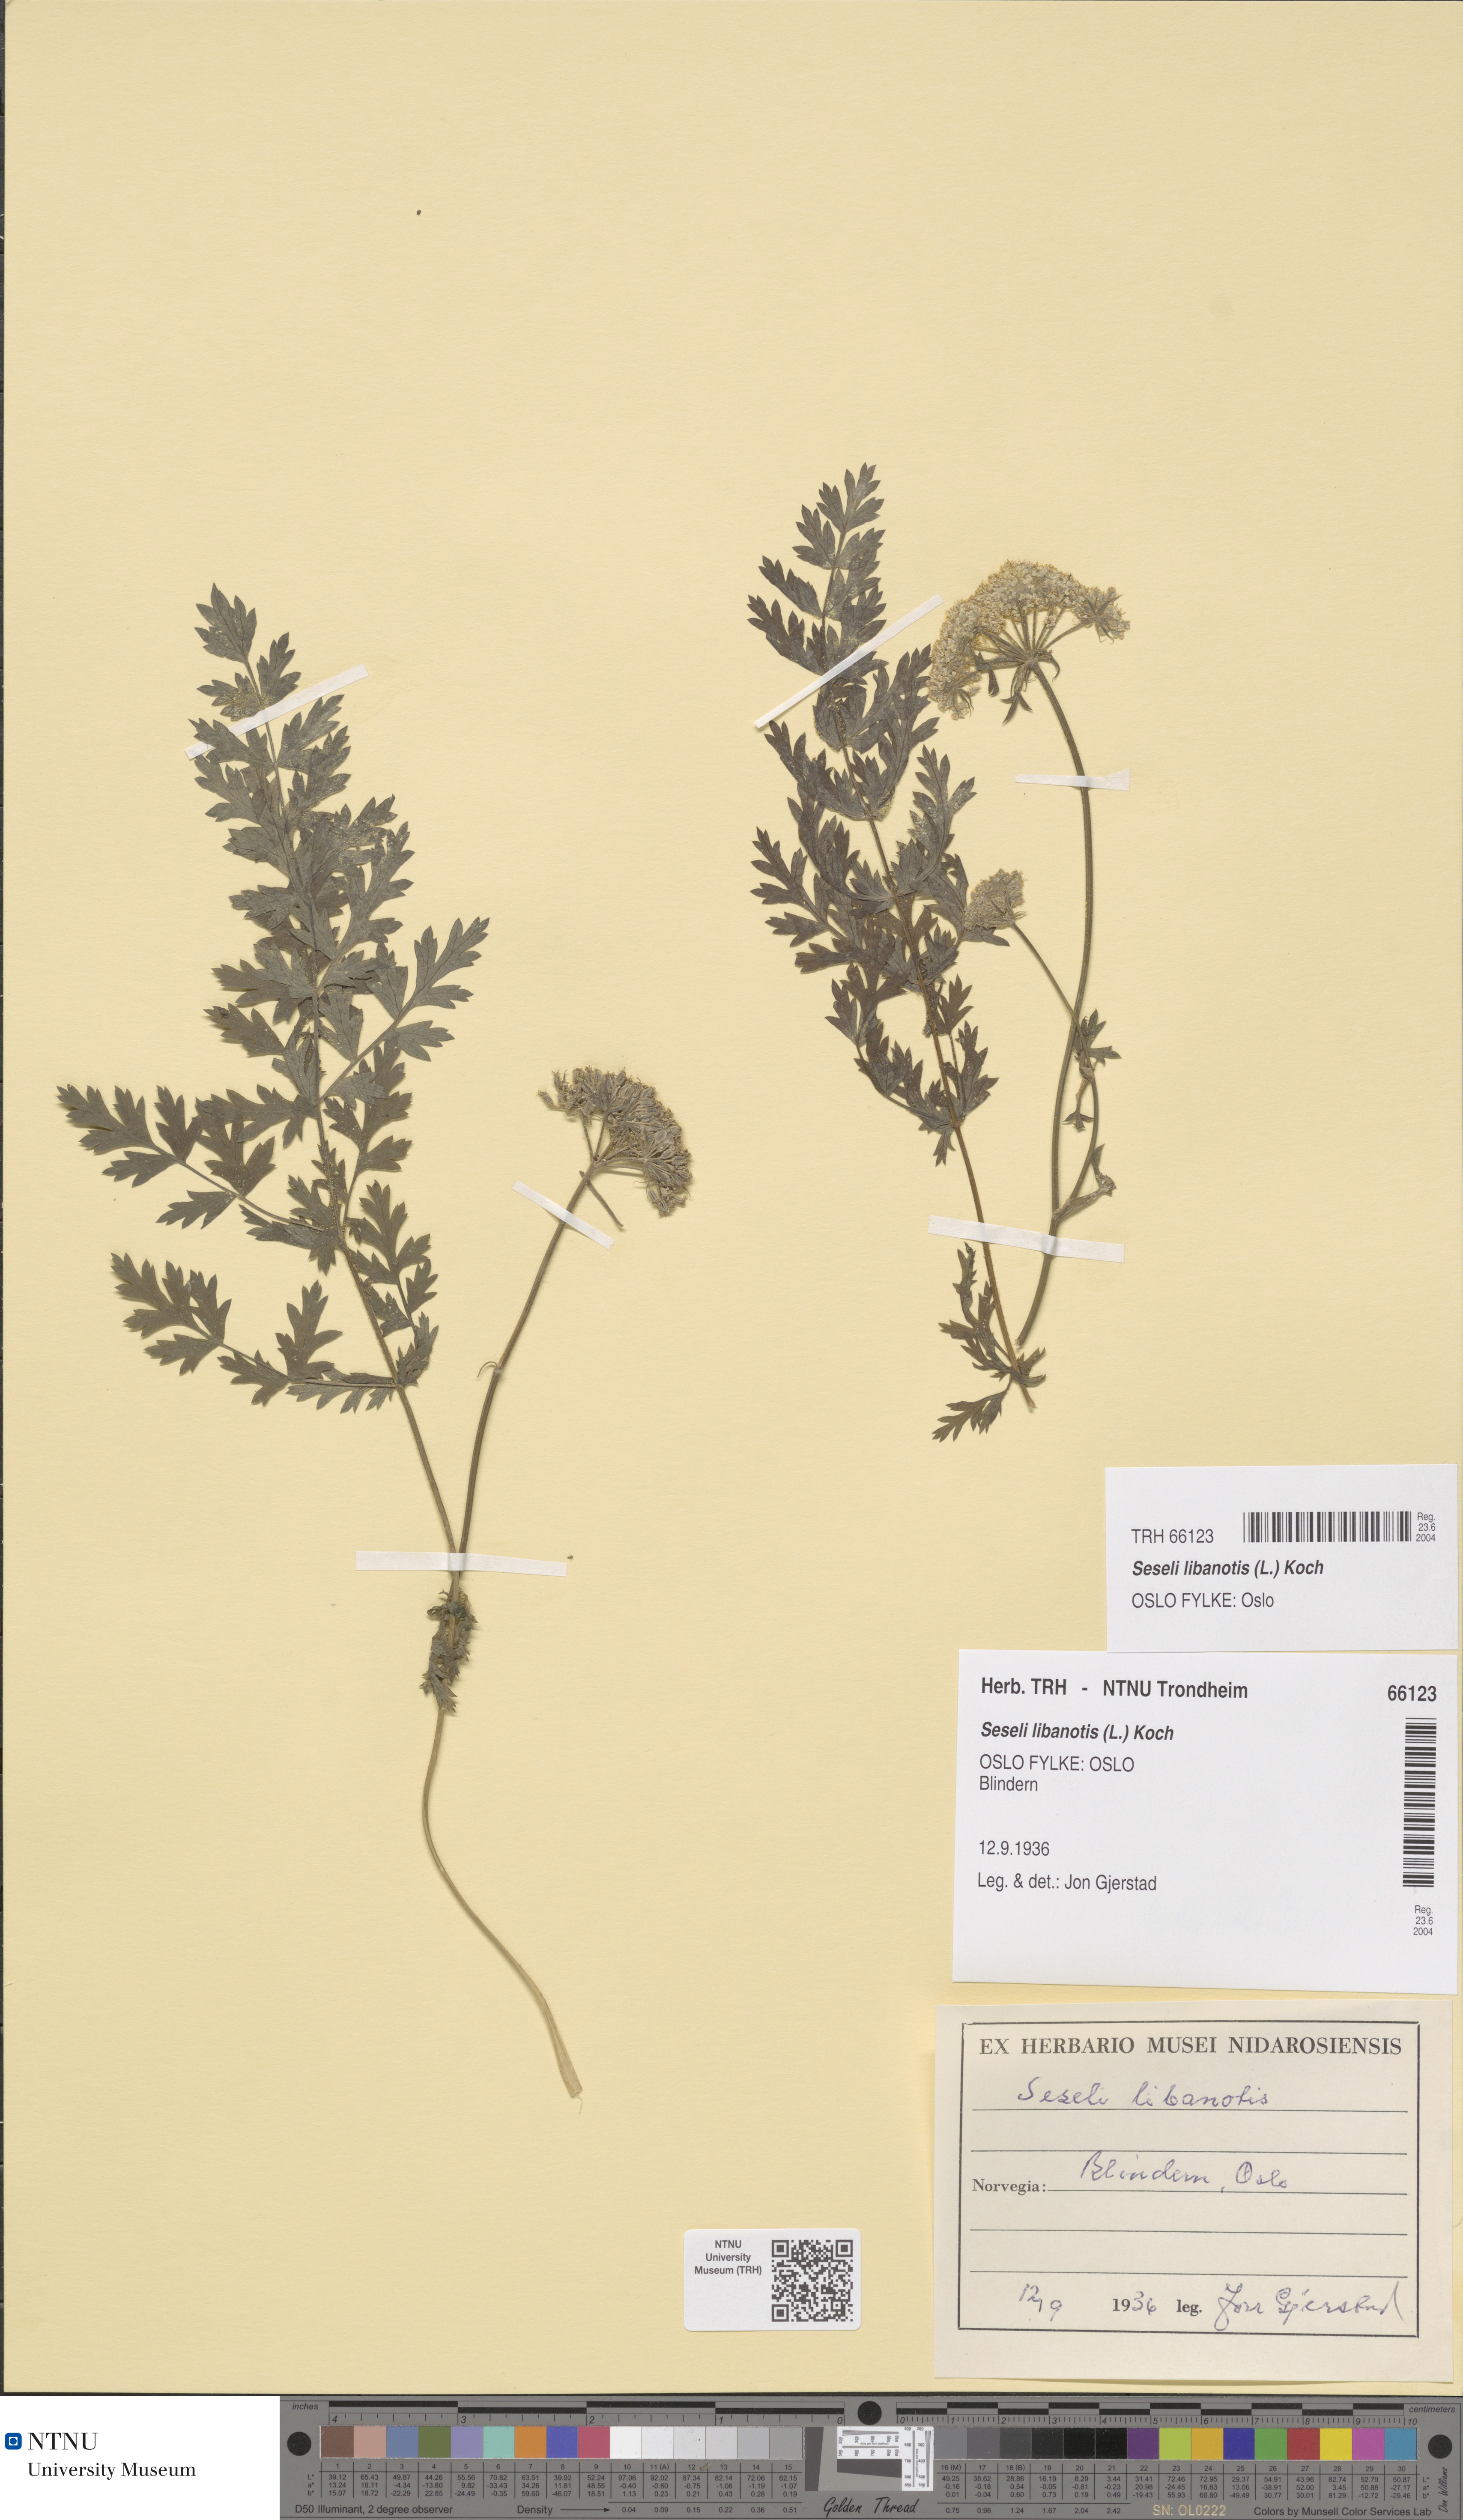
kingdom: Plantae
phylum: Tracheophyta
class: Magnoliopsida
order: Apiales
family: Apiaceae
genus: Seseli
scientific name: Seseli libanotis
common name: Mooncarrot
